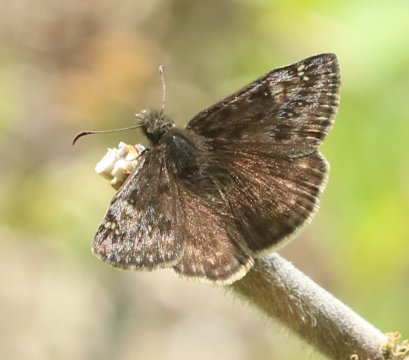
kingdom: Animalia
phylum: Arthropoda
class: Insecta
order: Lepidoptera
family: Hesperiidae
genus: Gesta
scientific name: Gesta
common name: Juvenal's Duskywing
